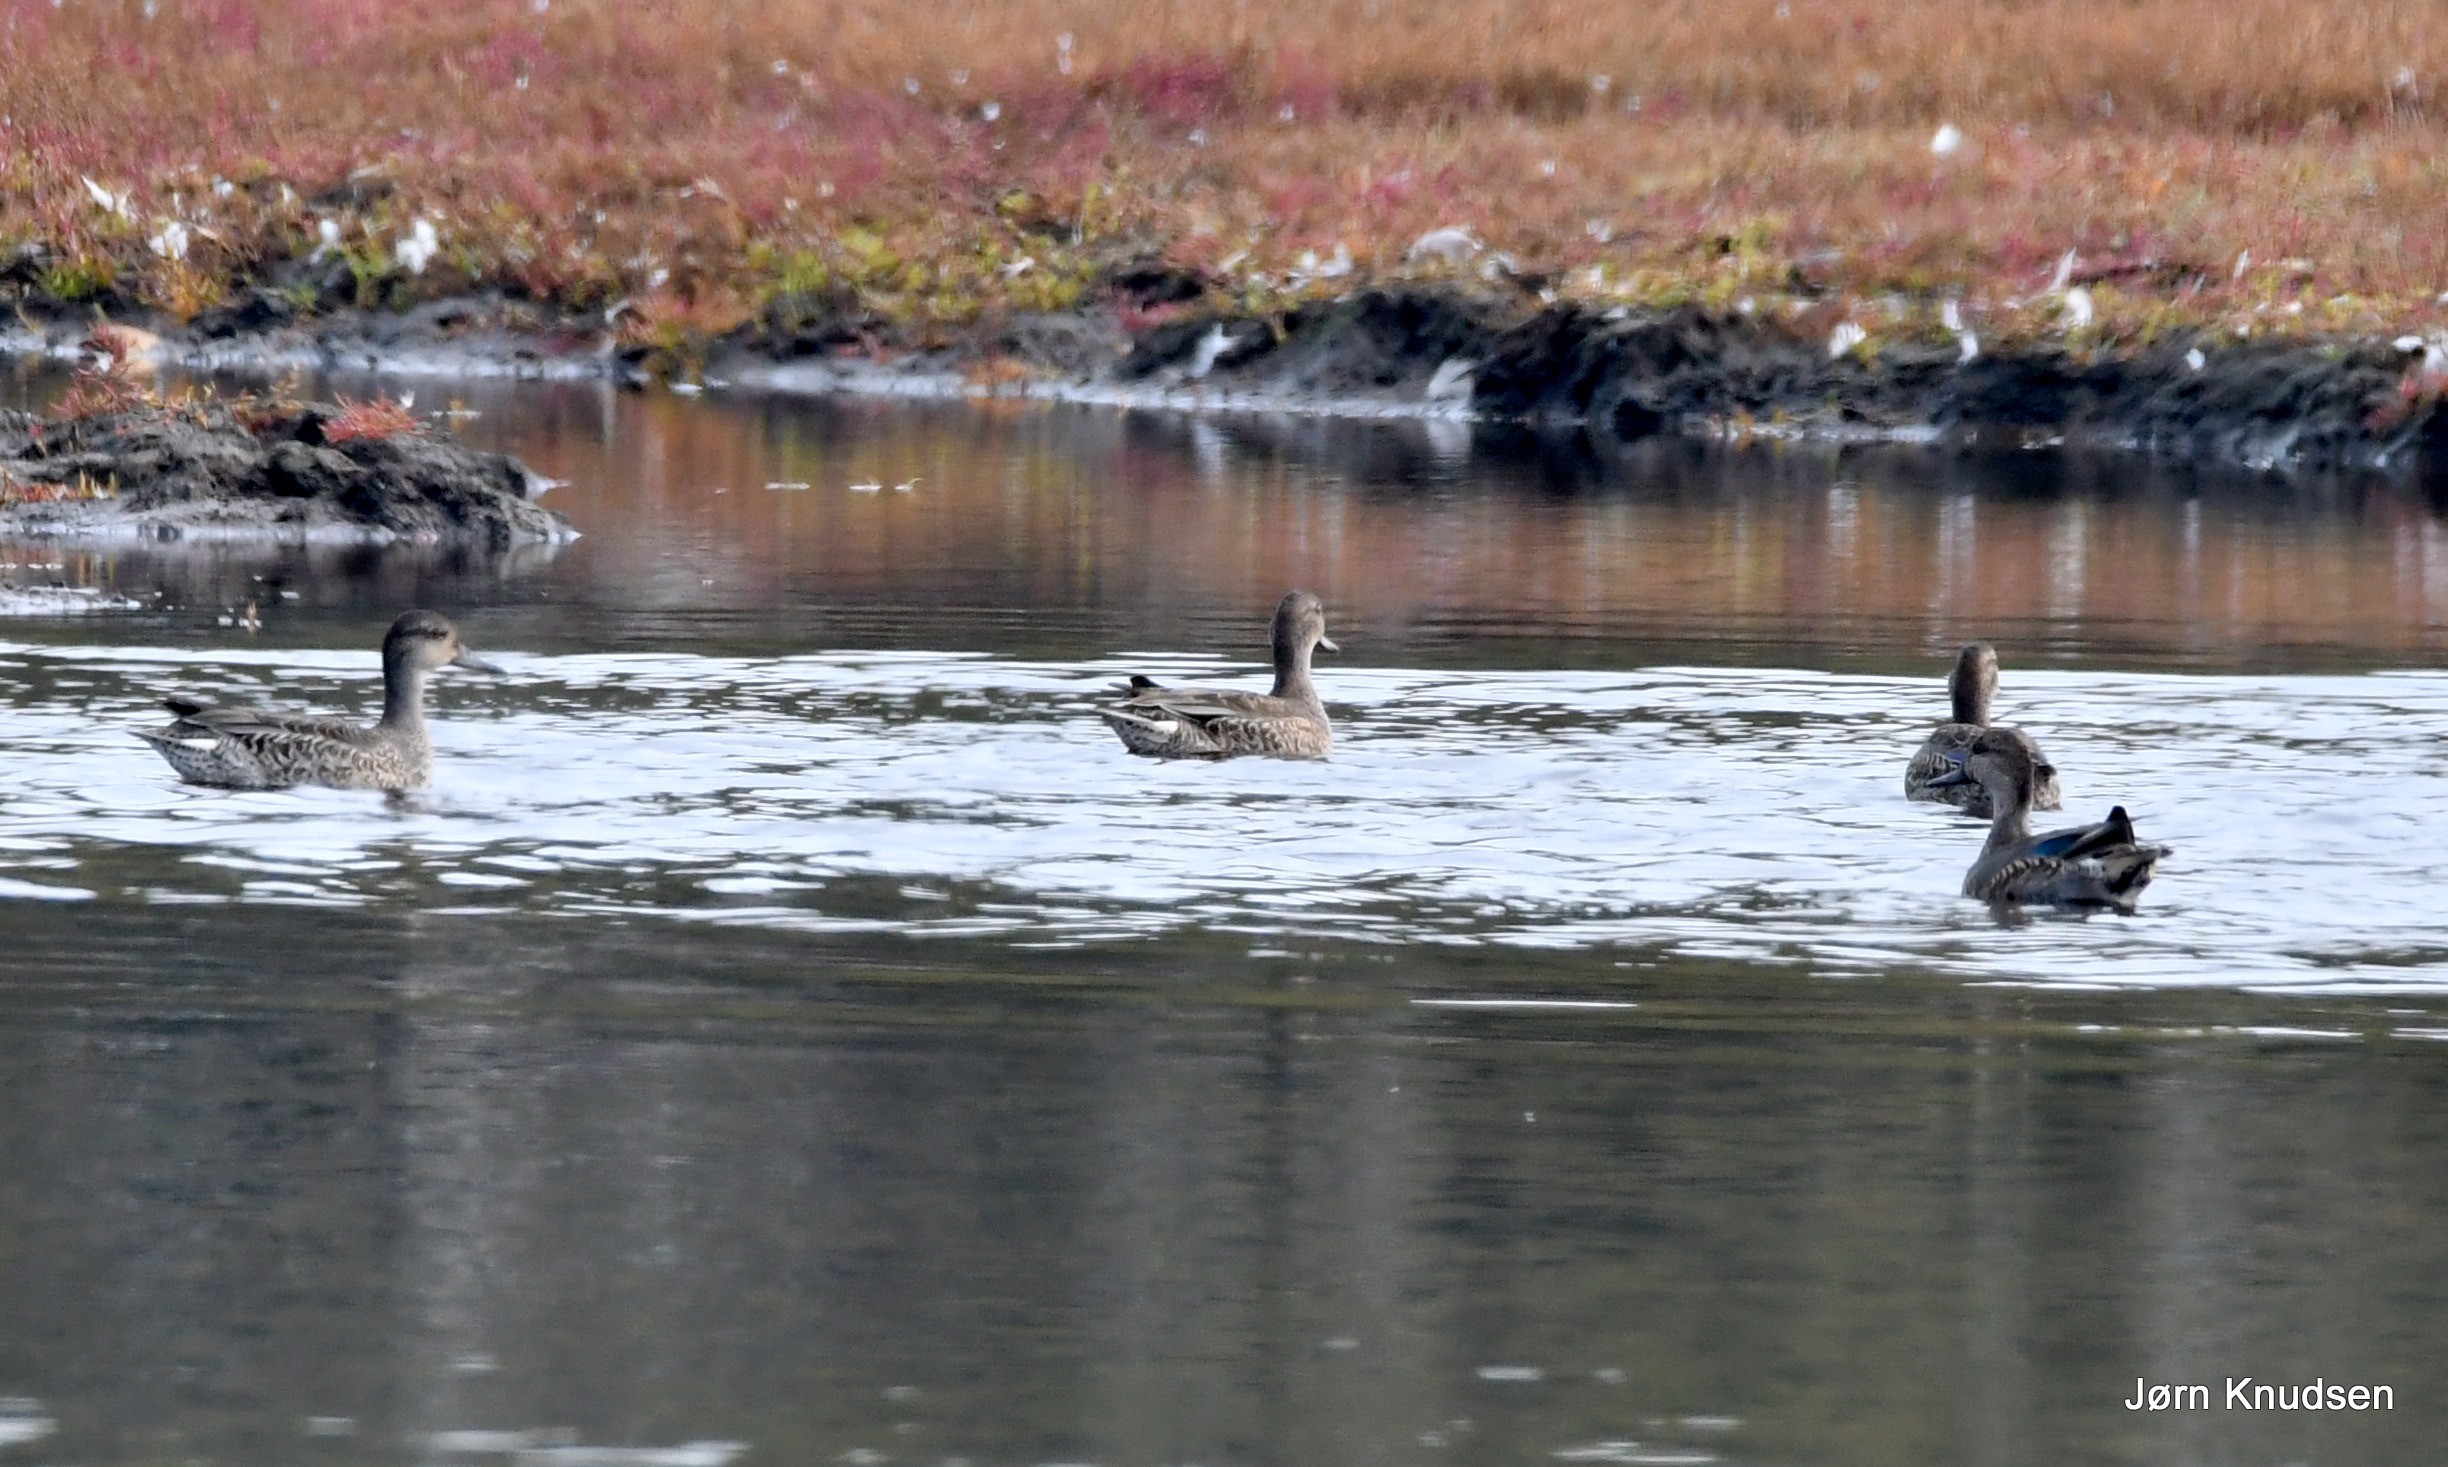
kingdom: Animalia
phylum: Chordata
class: Aves
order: Anseriformes
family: Anatidae
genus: Anas
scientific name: Anas crecca
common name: Krikand
